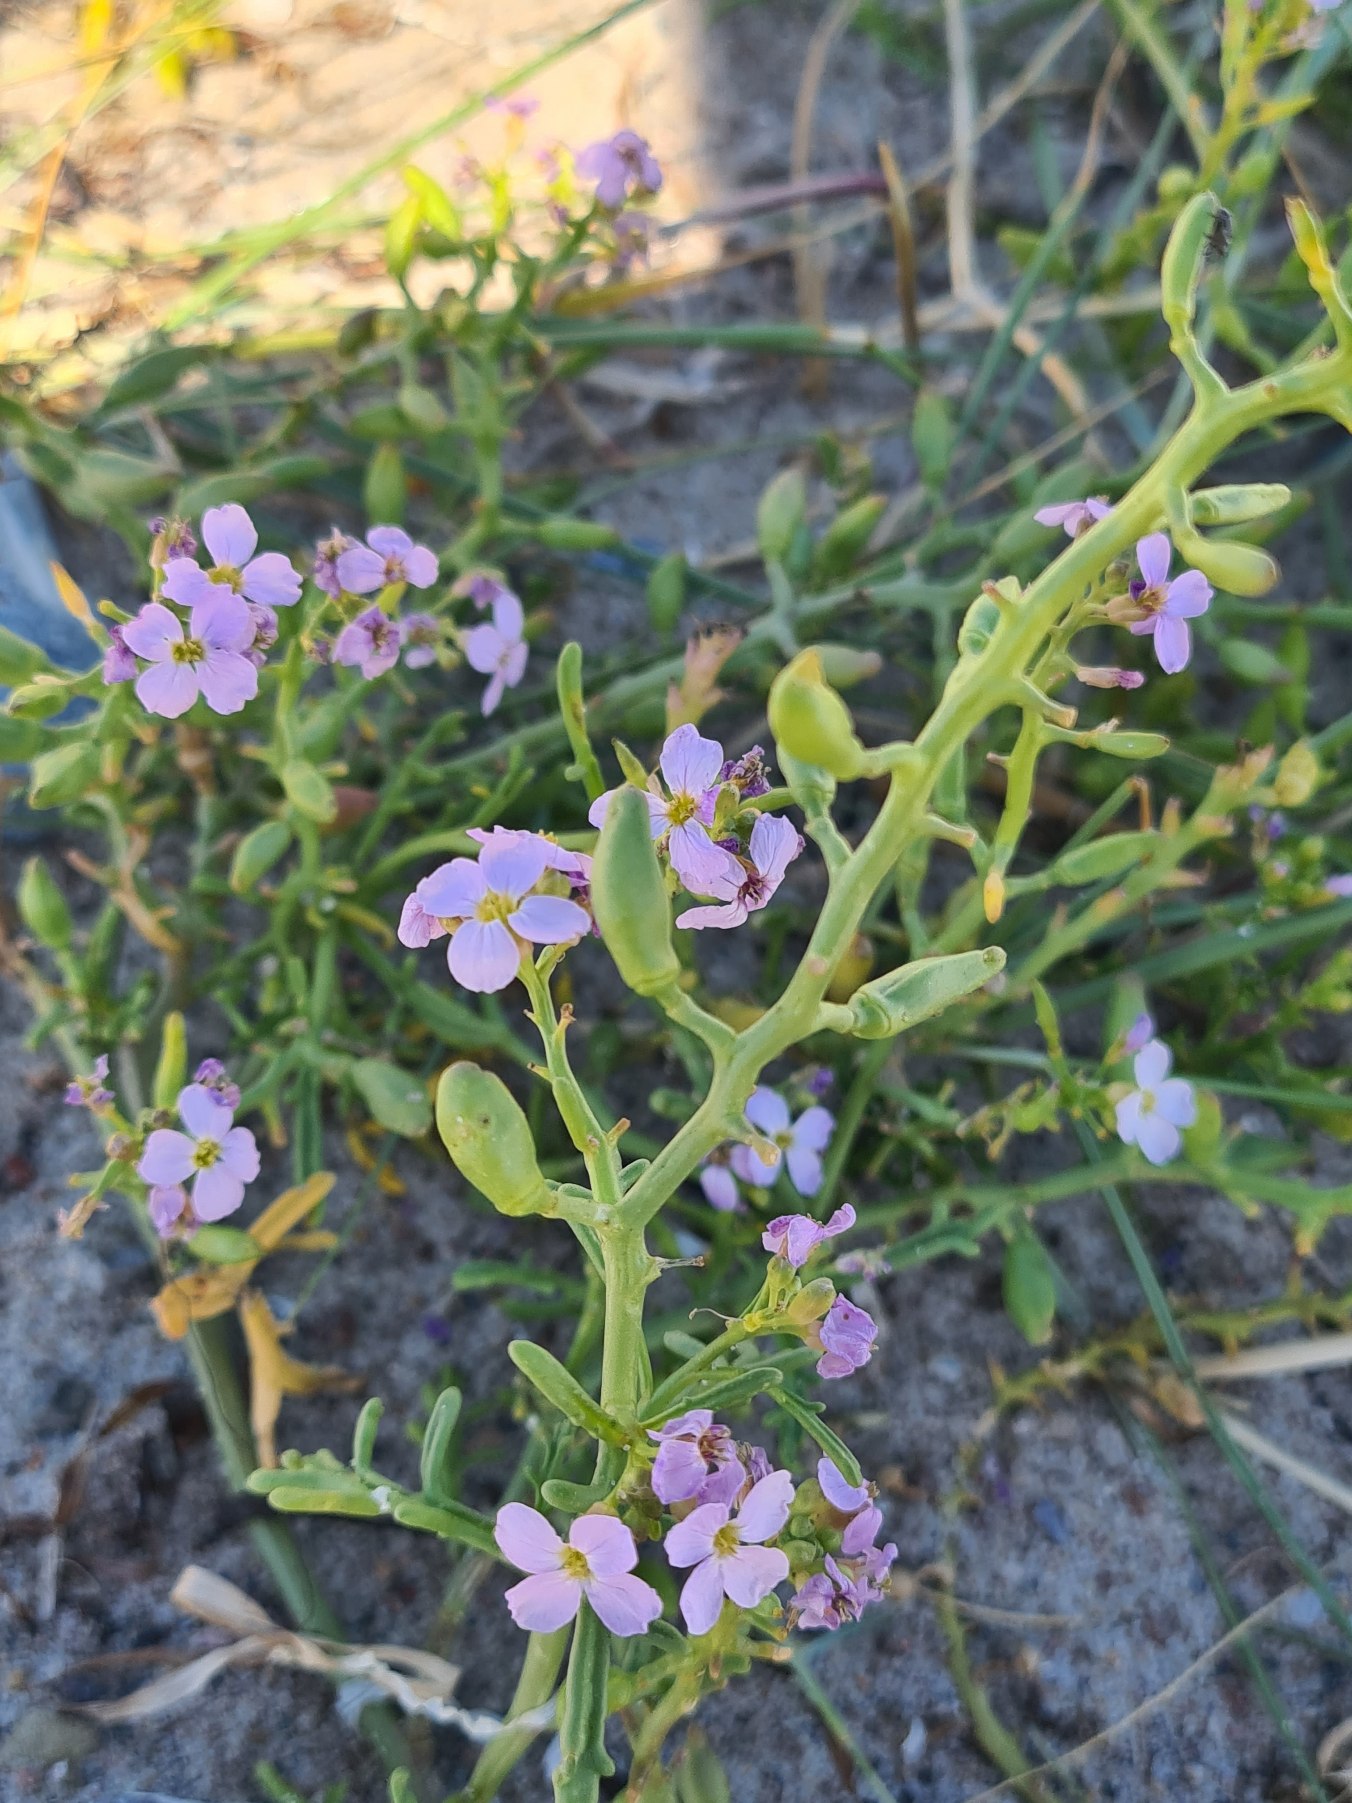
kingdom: Plantae
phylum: Tracheophyta
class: Magnoliopsida
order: Brassicales
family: Brassicaceae
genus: Cakile
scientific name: Cakile maritima
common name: Strandsennep
